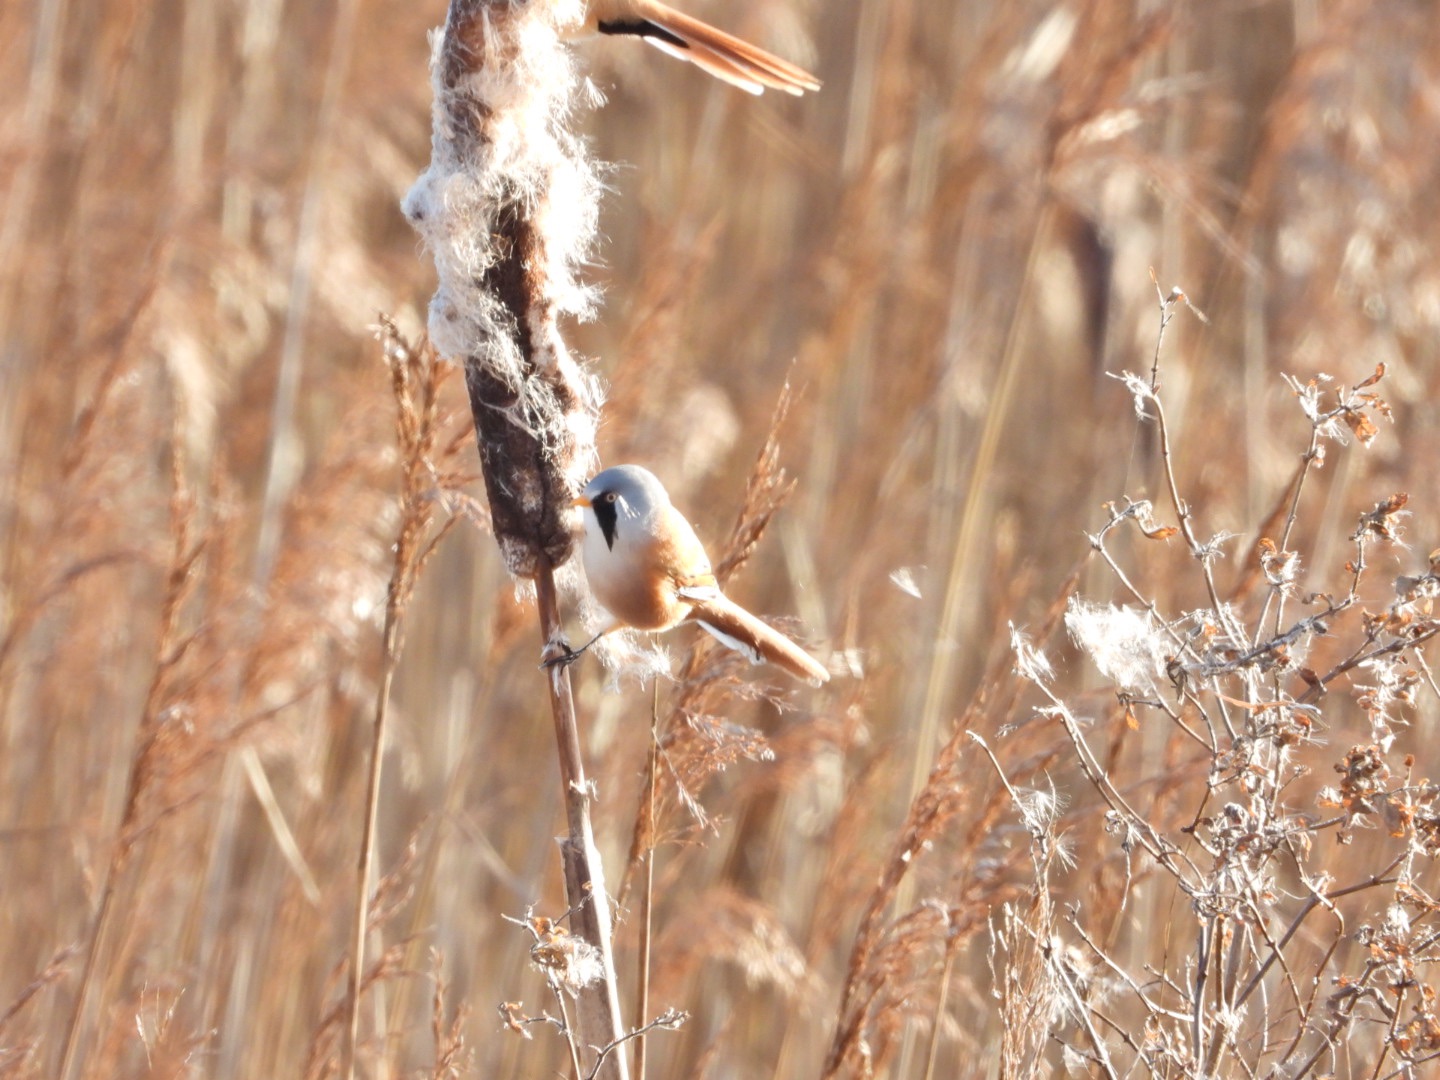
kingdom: Animalia
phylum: Chordata
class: Aves
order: Passeriformes
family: Panuridae
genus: Panurus
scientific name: Panurus biarmicus
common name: Skægmejse
